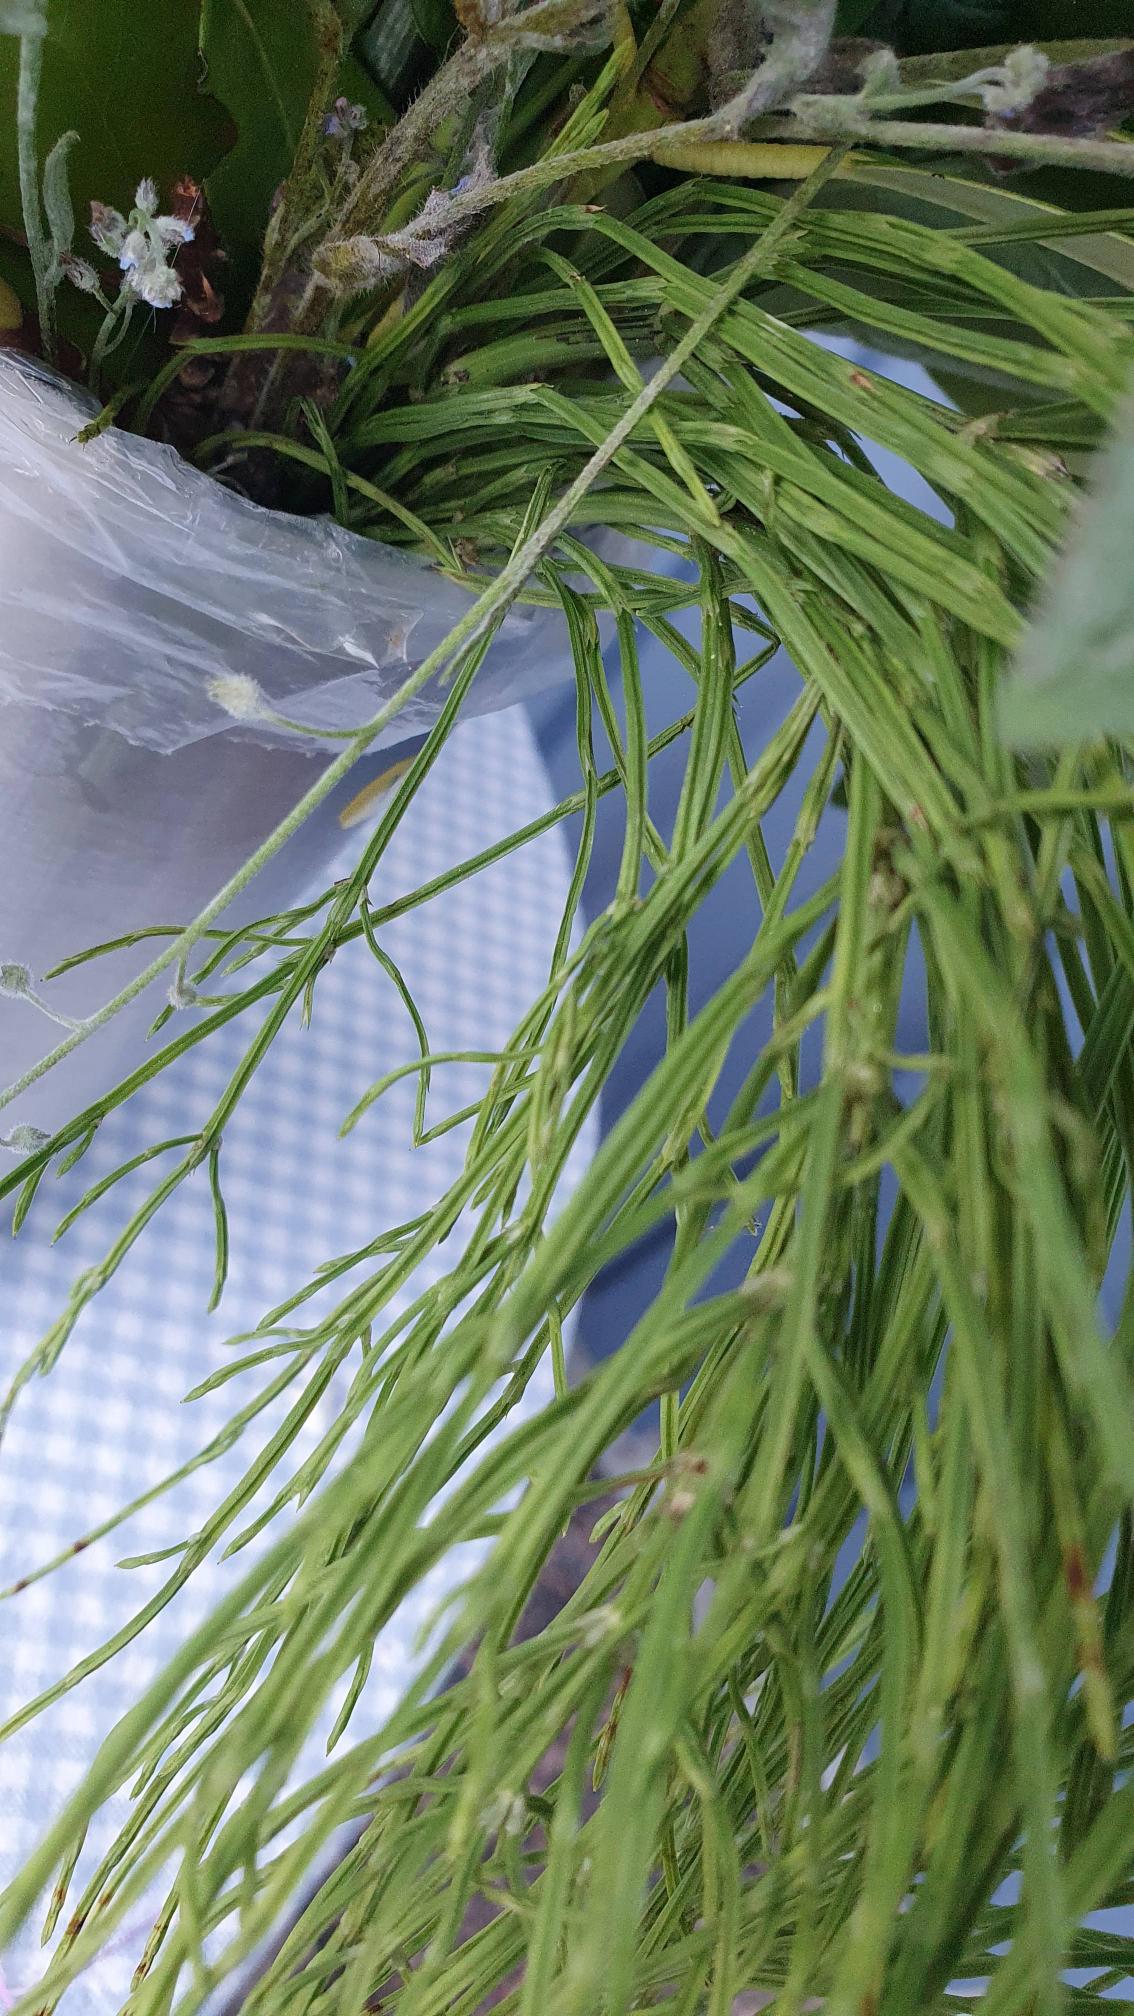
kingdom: Plantae
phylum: Tracheophyta
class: Polypodiopsida
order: Equisetales
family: Equisetaceae
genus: Equisetum
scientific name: Equisetum arvense
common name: Ager-padderok
